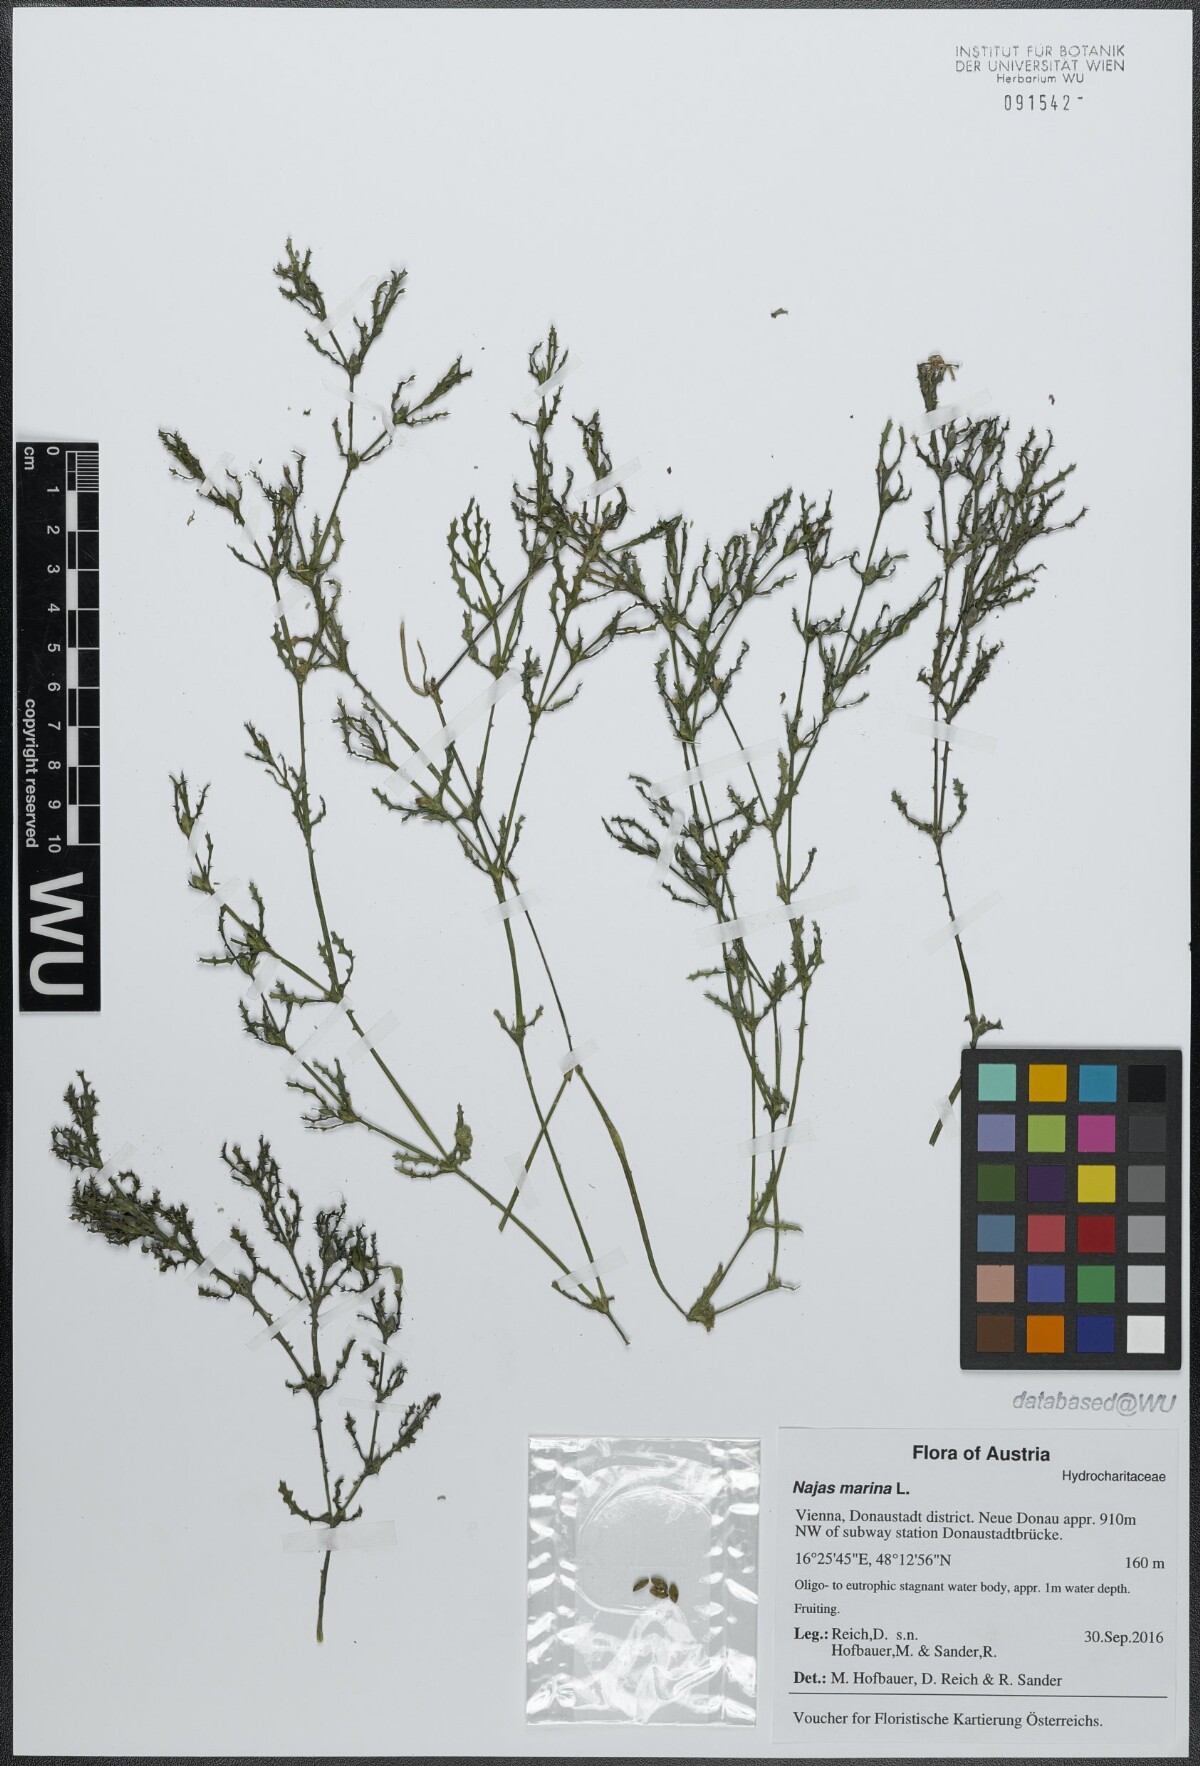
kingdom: Plantae
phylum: Tracheophyta
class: Liliopsida
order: Alismatales
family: Hydrocharitaceae
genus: Najas
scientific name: Najas marina
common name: Holly-leaved naiad
